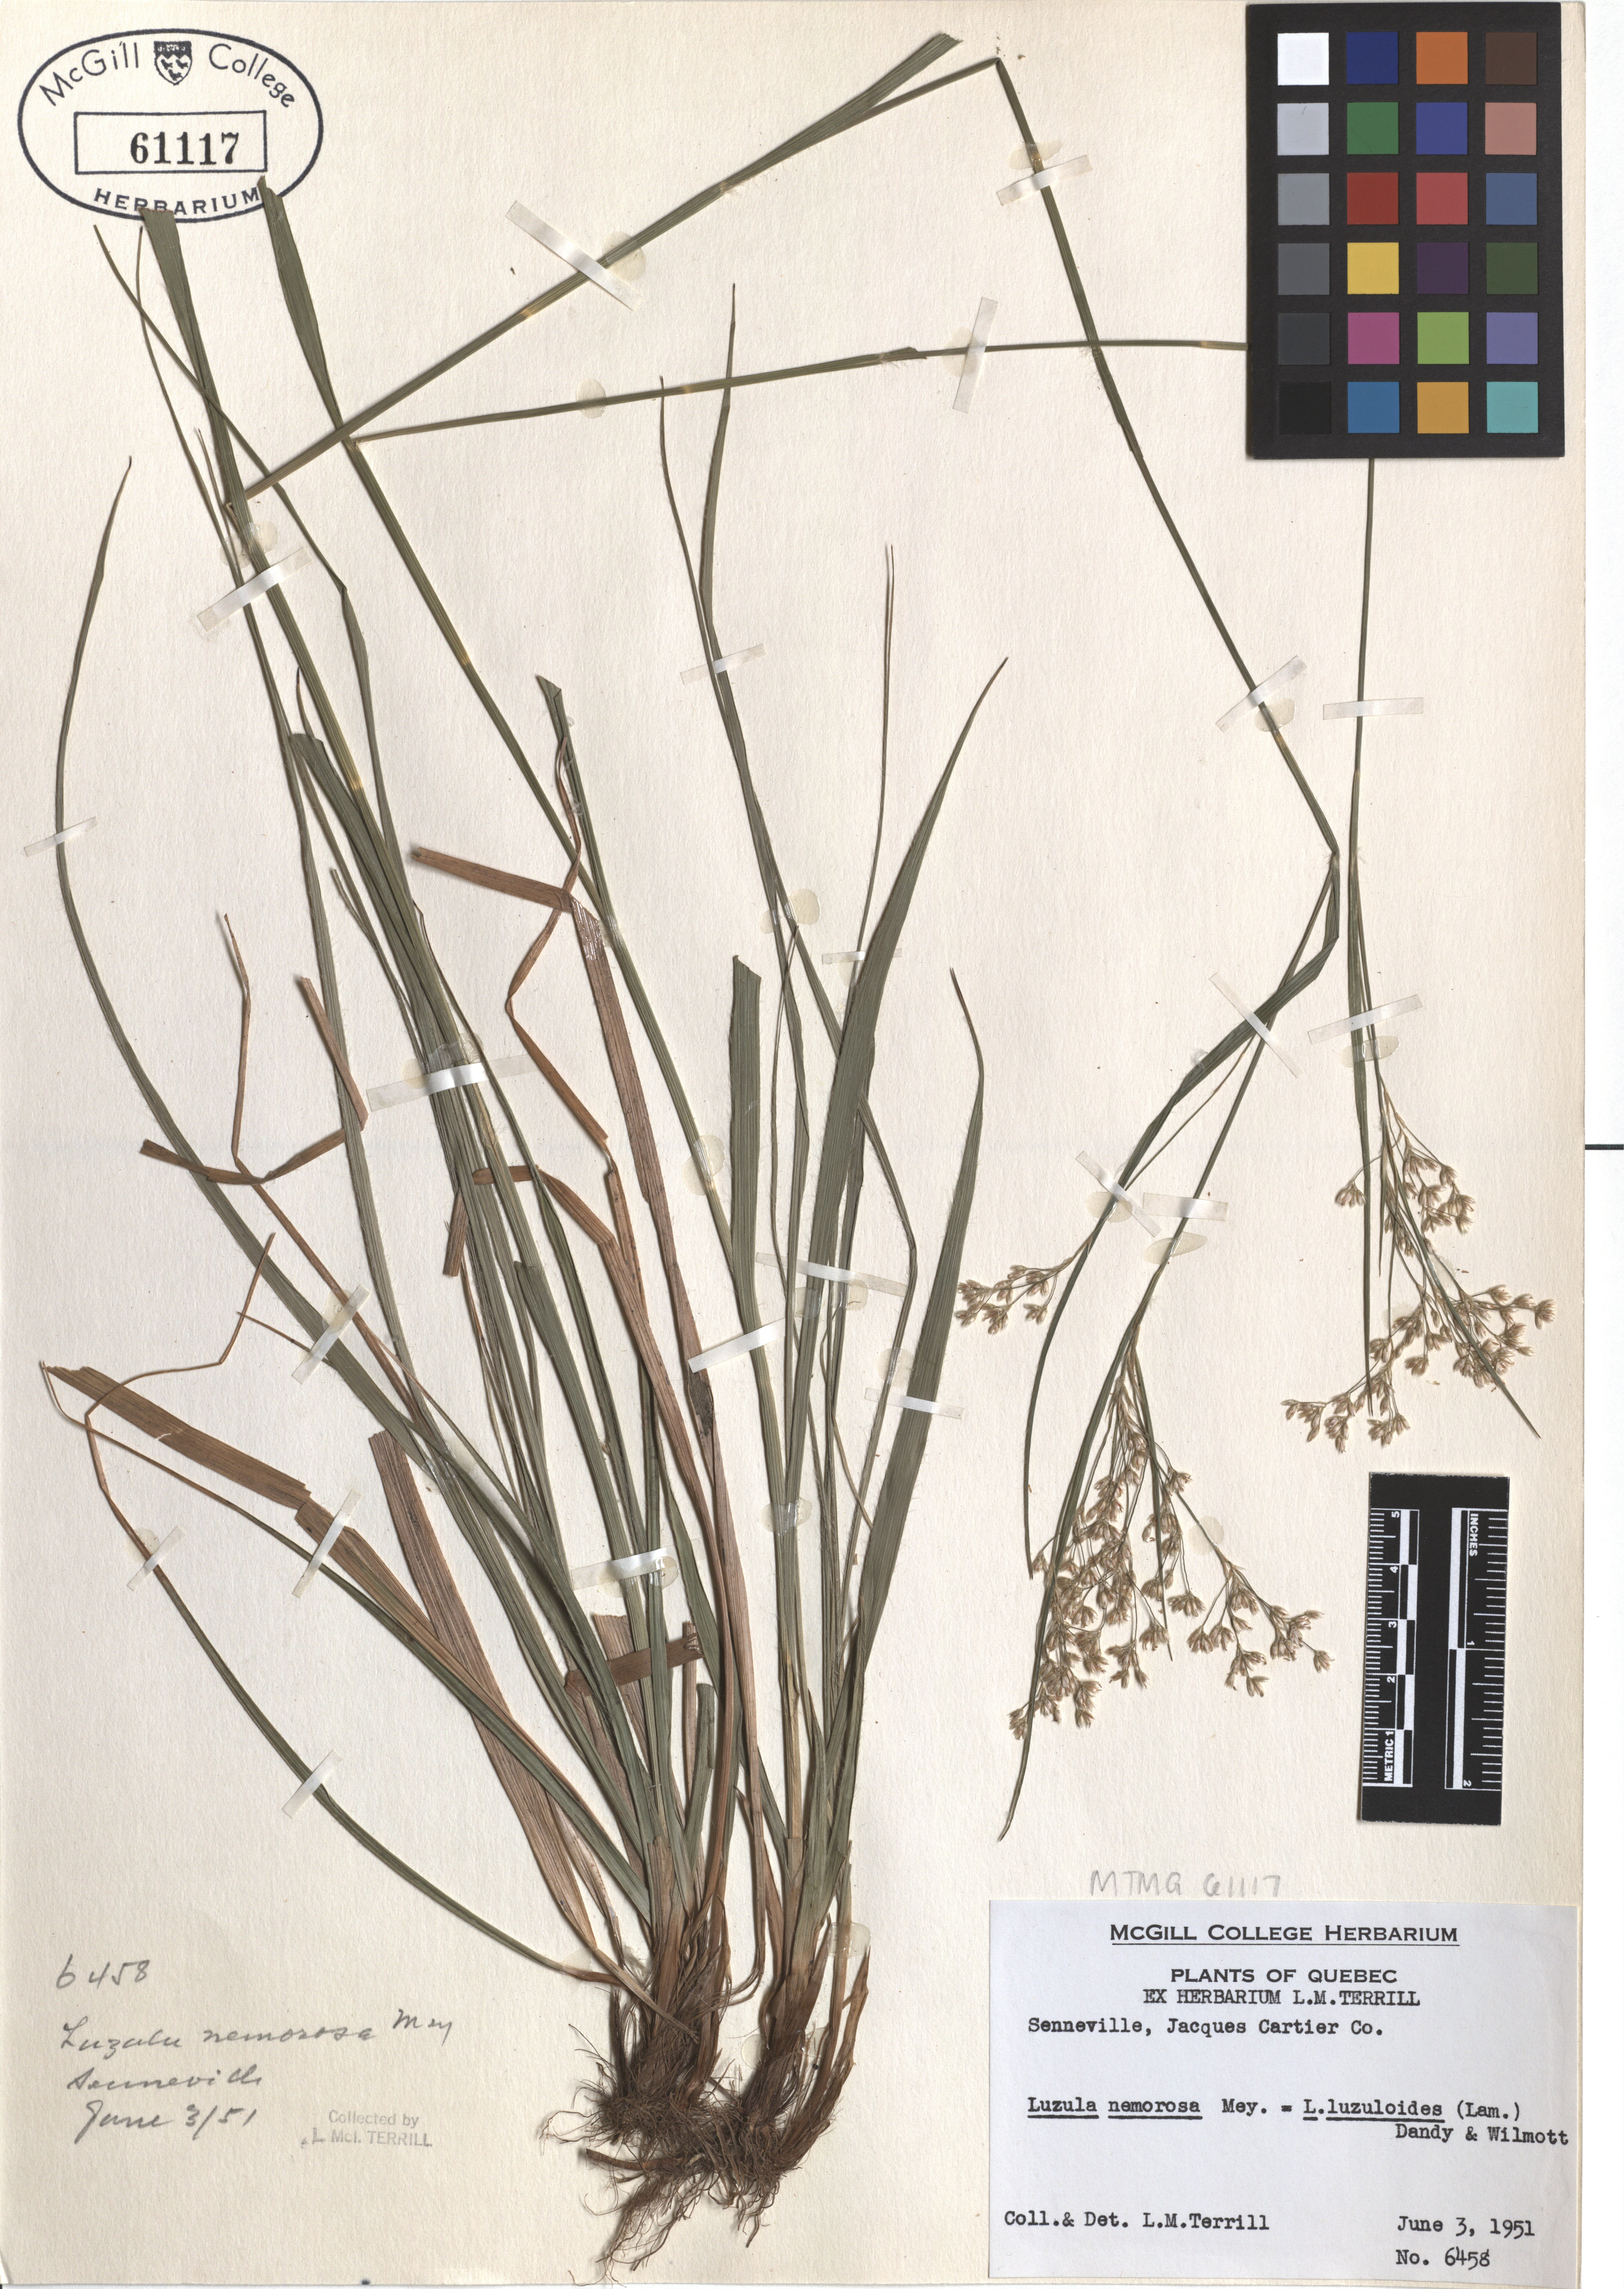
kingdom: Plantae
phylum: Tracheophyta
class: Liliopsida
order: Poales
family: Juncaceae
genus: Luzula
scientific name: Luzula luzuloides
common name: White wood-rush
